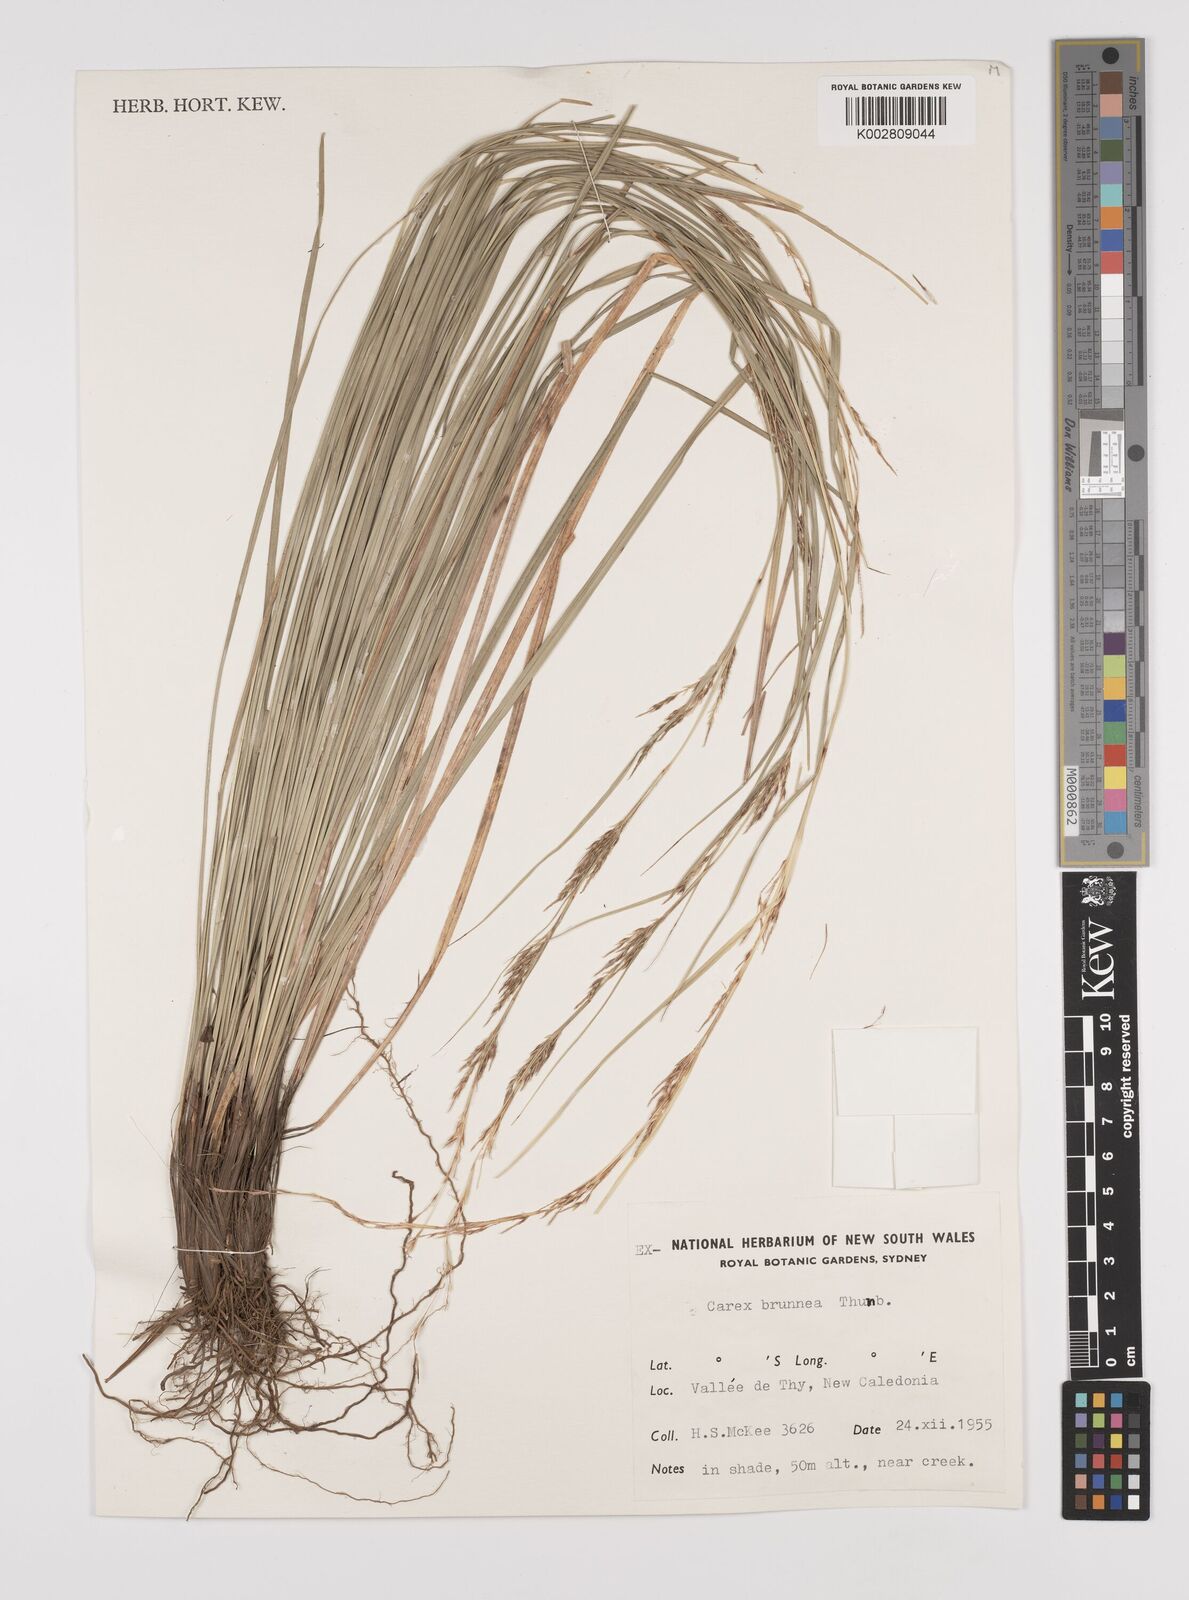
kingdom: Plantae
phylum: Tracheophyta
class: Liliopsida
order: Poales
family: Cyperaceae
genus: Carex
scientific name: Carex brunnea
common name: Greater brown sedge
